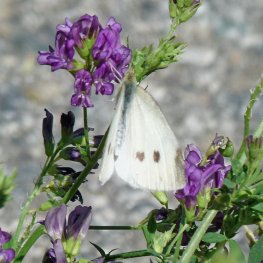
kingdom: Animalia
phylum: Arthropoda
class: Insecta
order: Lepidoptera
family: Pieridae
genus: Pieris
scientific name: Pieris rapae
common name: Cabbage White
